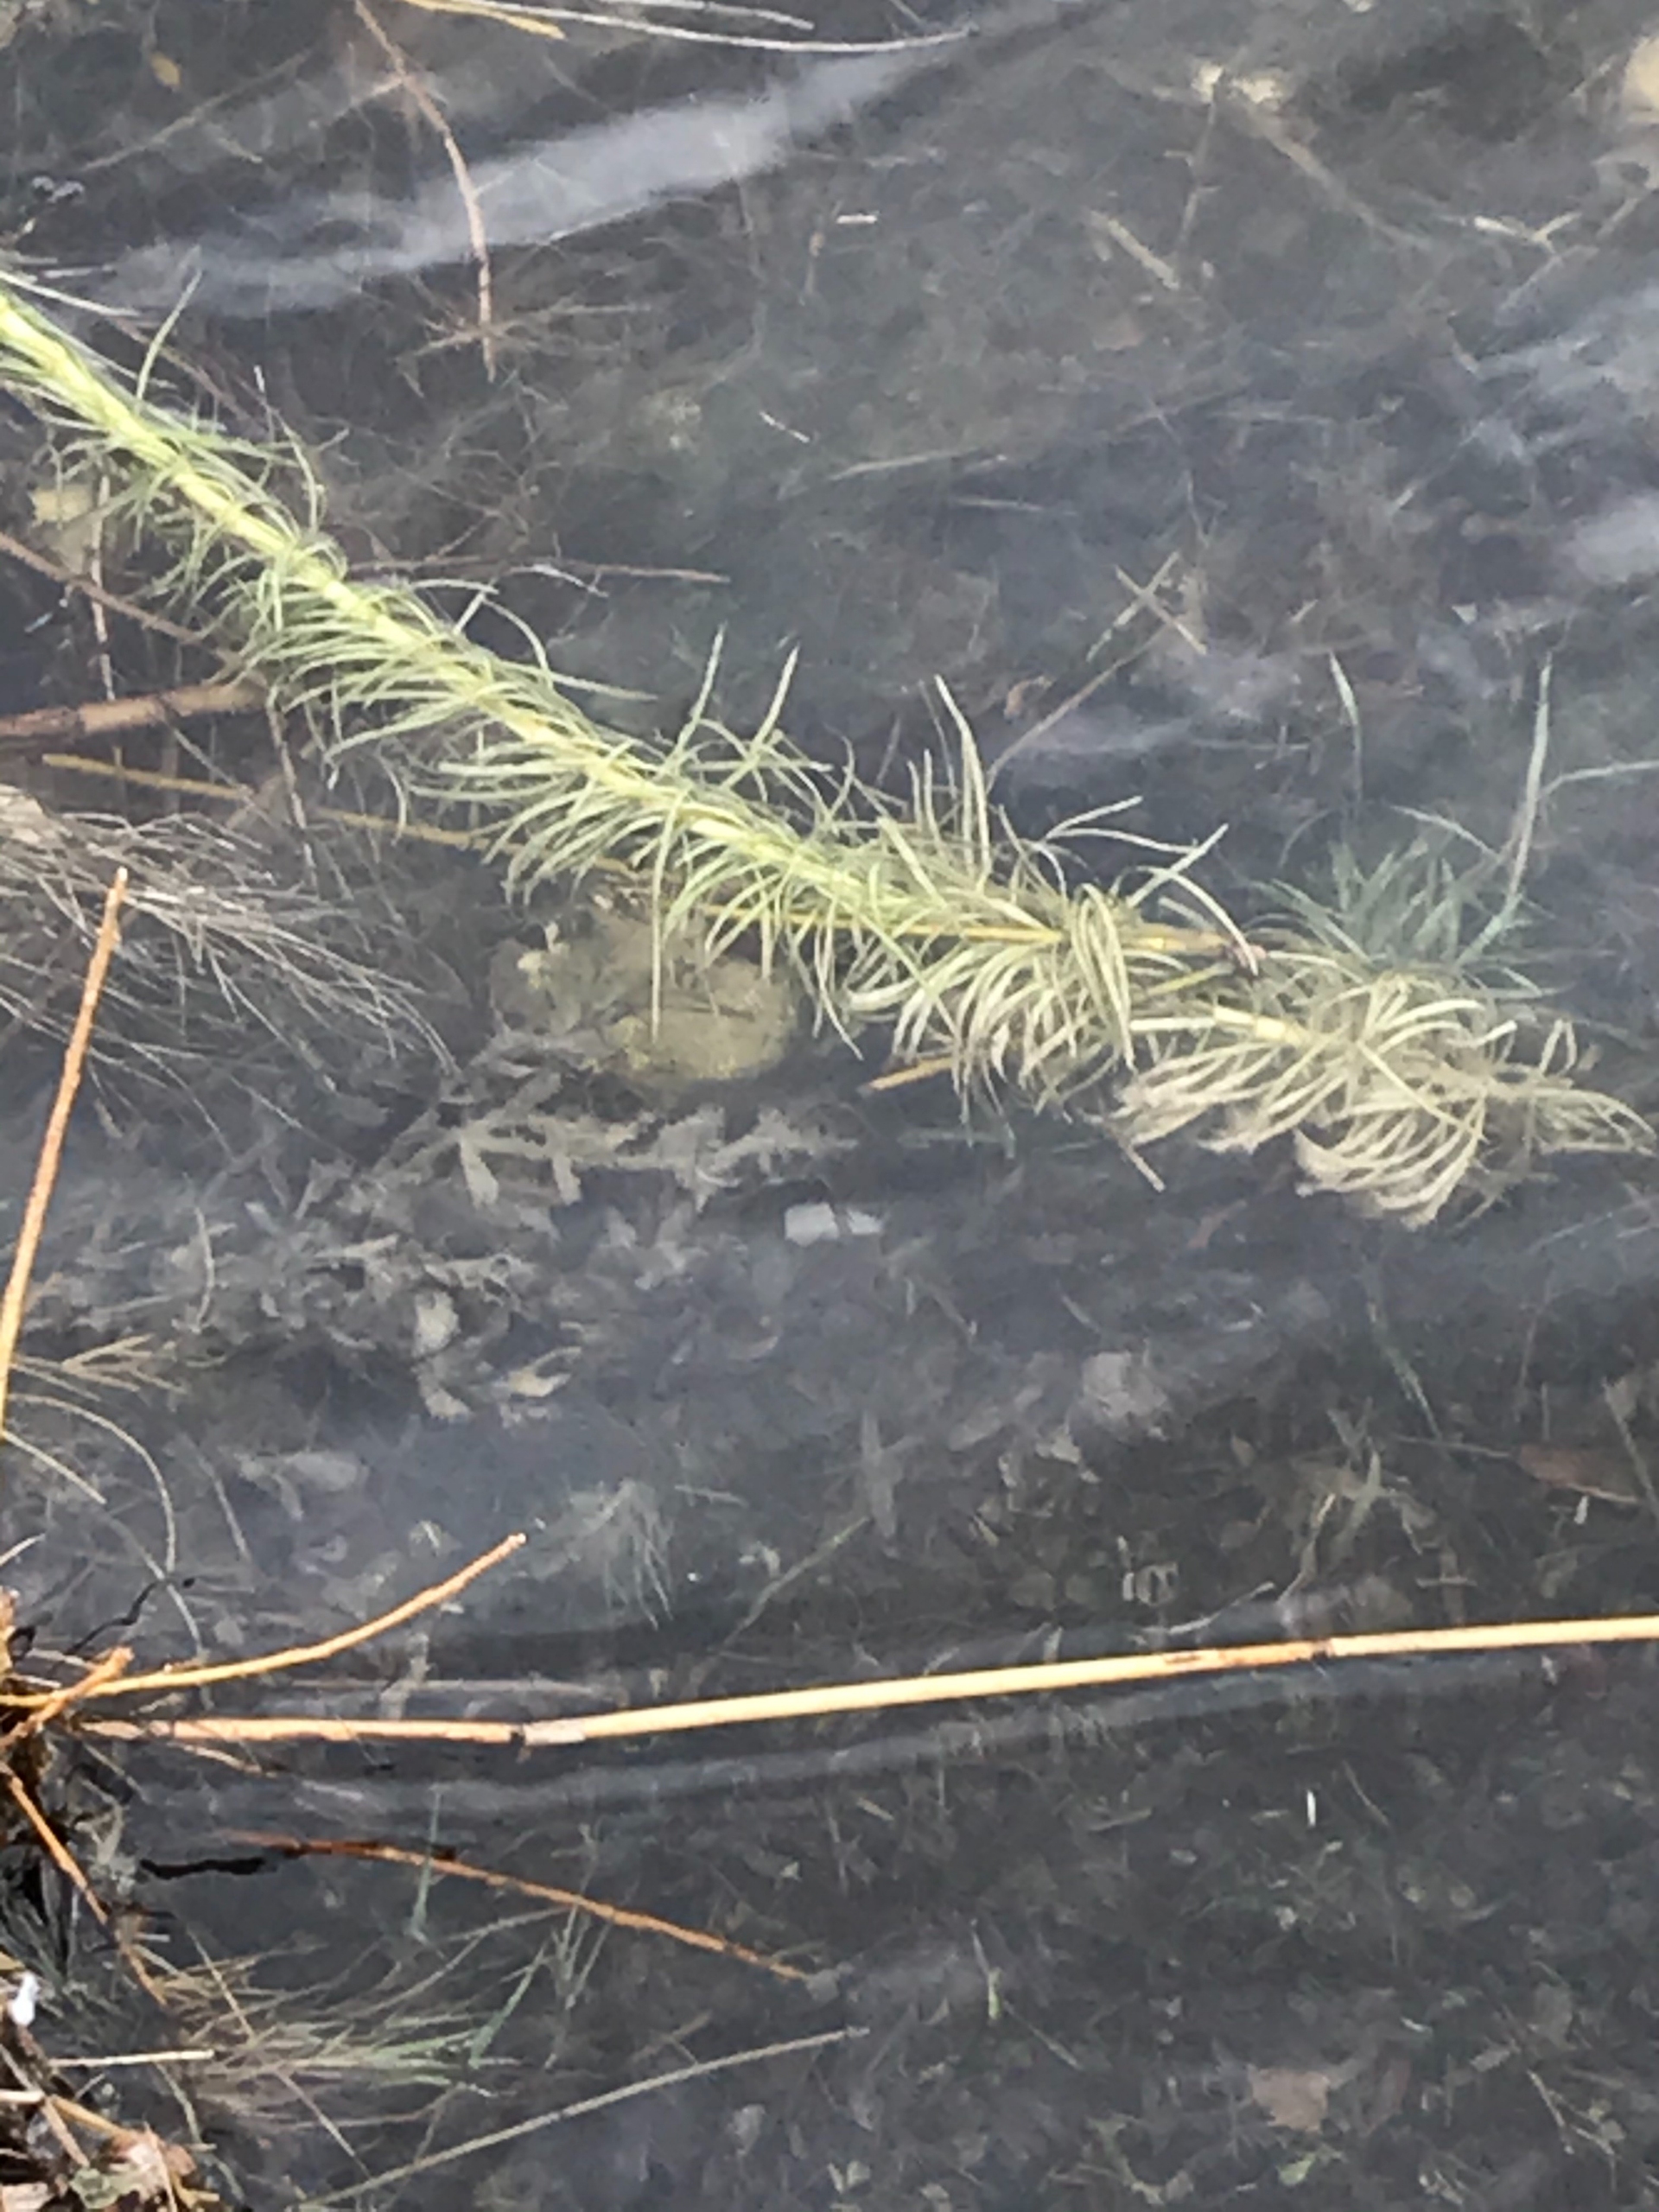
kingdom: Plantae
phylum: Tracheophyta
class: Magnoliopsida
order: Lamiales
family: Plantaginaceae
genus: Hippuris
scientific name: Hippuris vulgaris
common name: Vandspir
